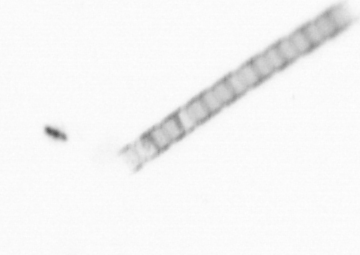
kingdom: Chromista
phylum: Ochrophyta
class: Bacillariophyceae
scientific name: Bacillariophyceae
